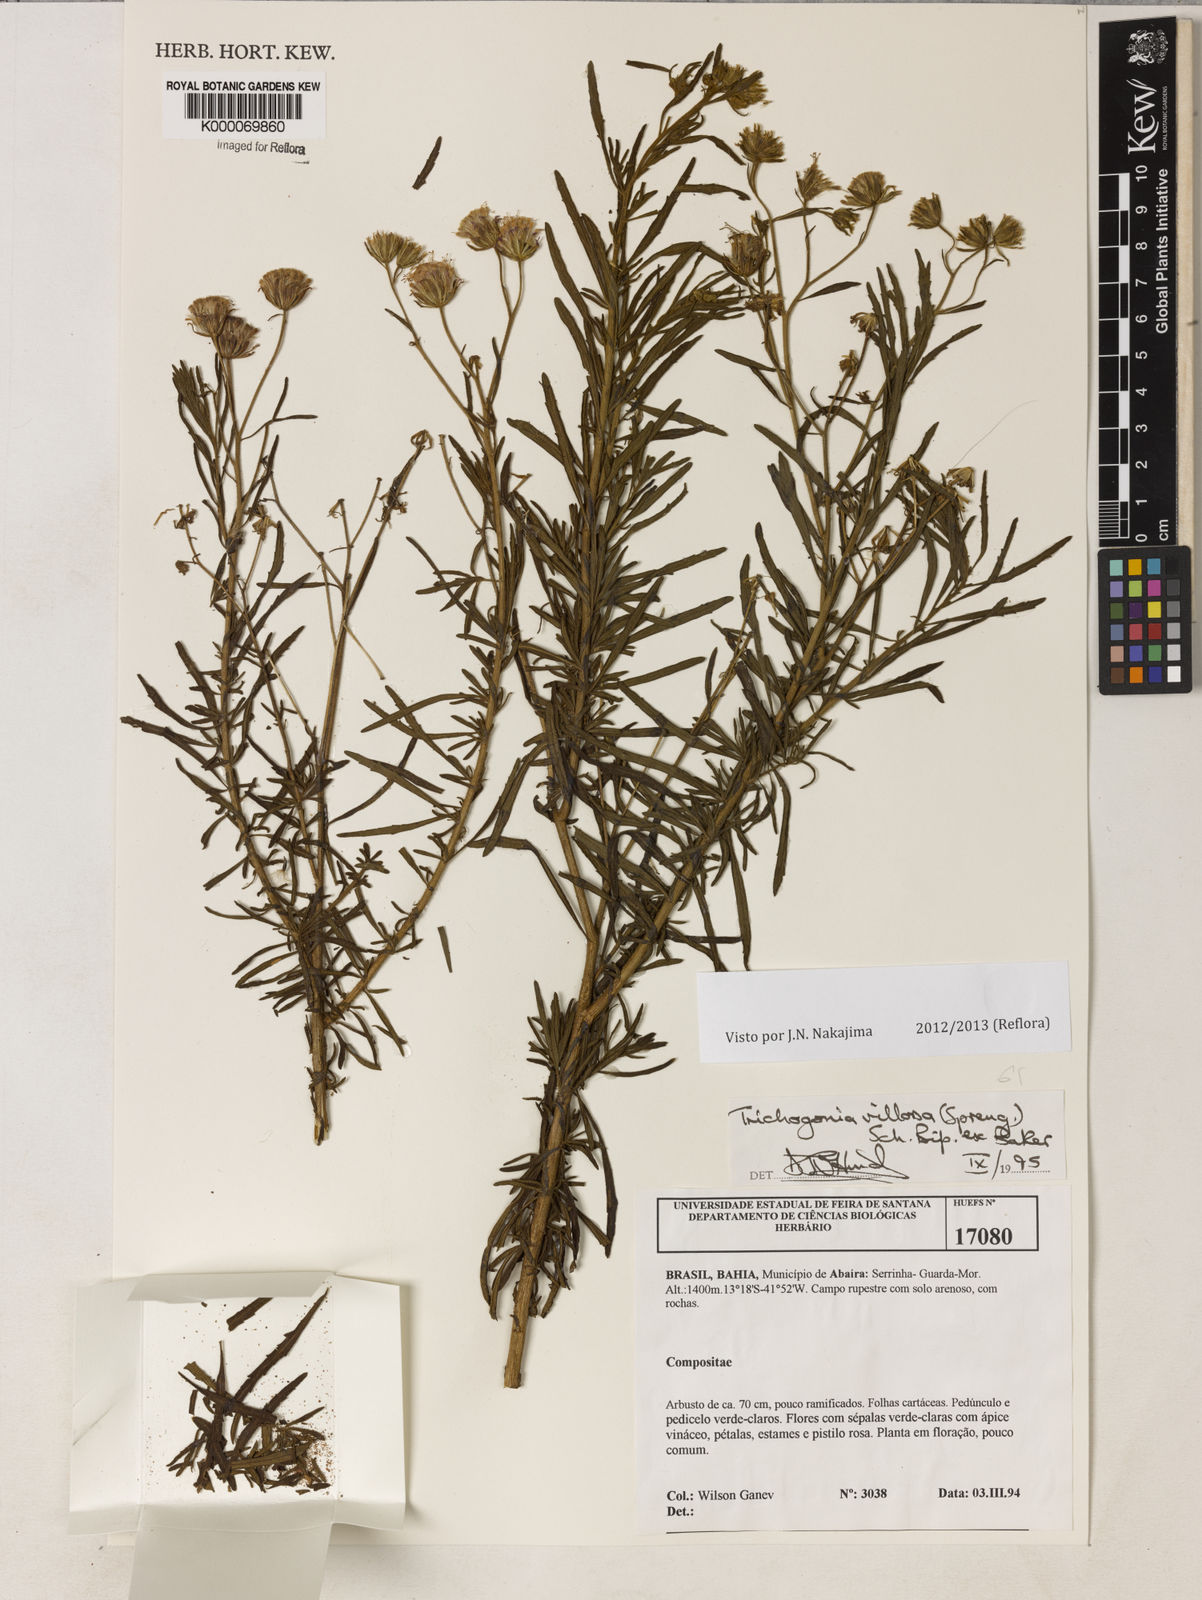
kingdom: Plantae
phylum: Tracheophyta
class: Magnoliopsida
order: Asterales
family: Asteraceae
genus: Trichogonia
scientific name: Trichogonia villosa
